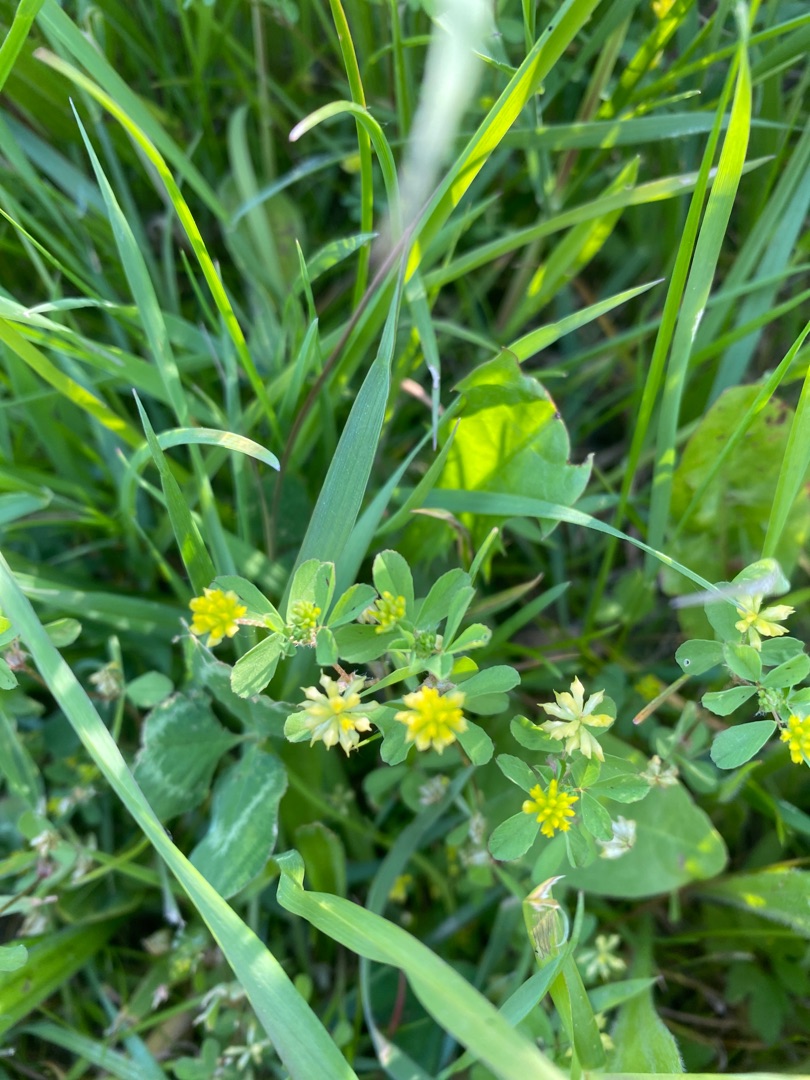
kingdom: Plantae
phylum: Tracheophyta
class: Magnoliopsida
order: Fabales
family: Fabaceae
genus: Trifolium
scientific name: Trifolium dubium
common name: Fin kløver
